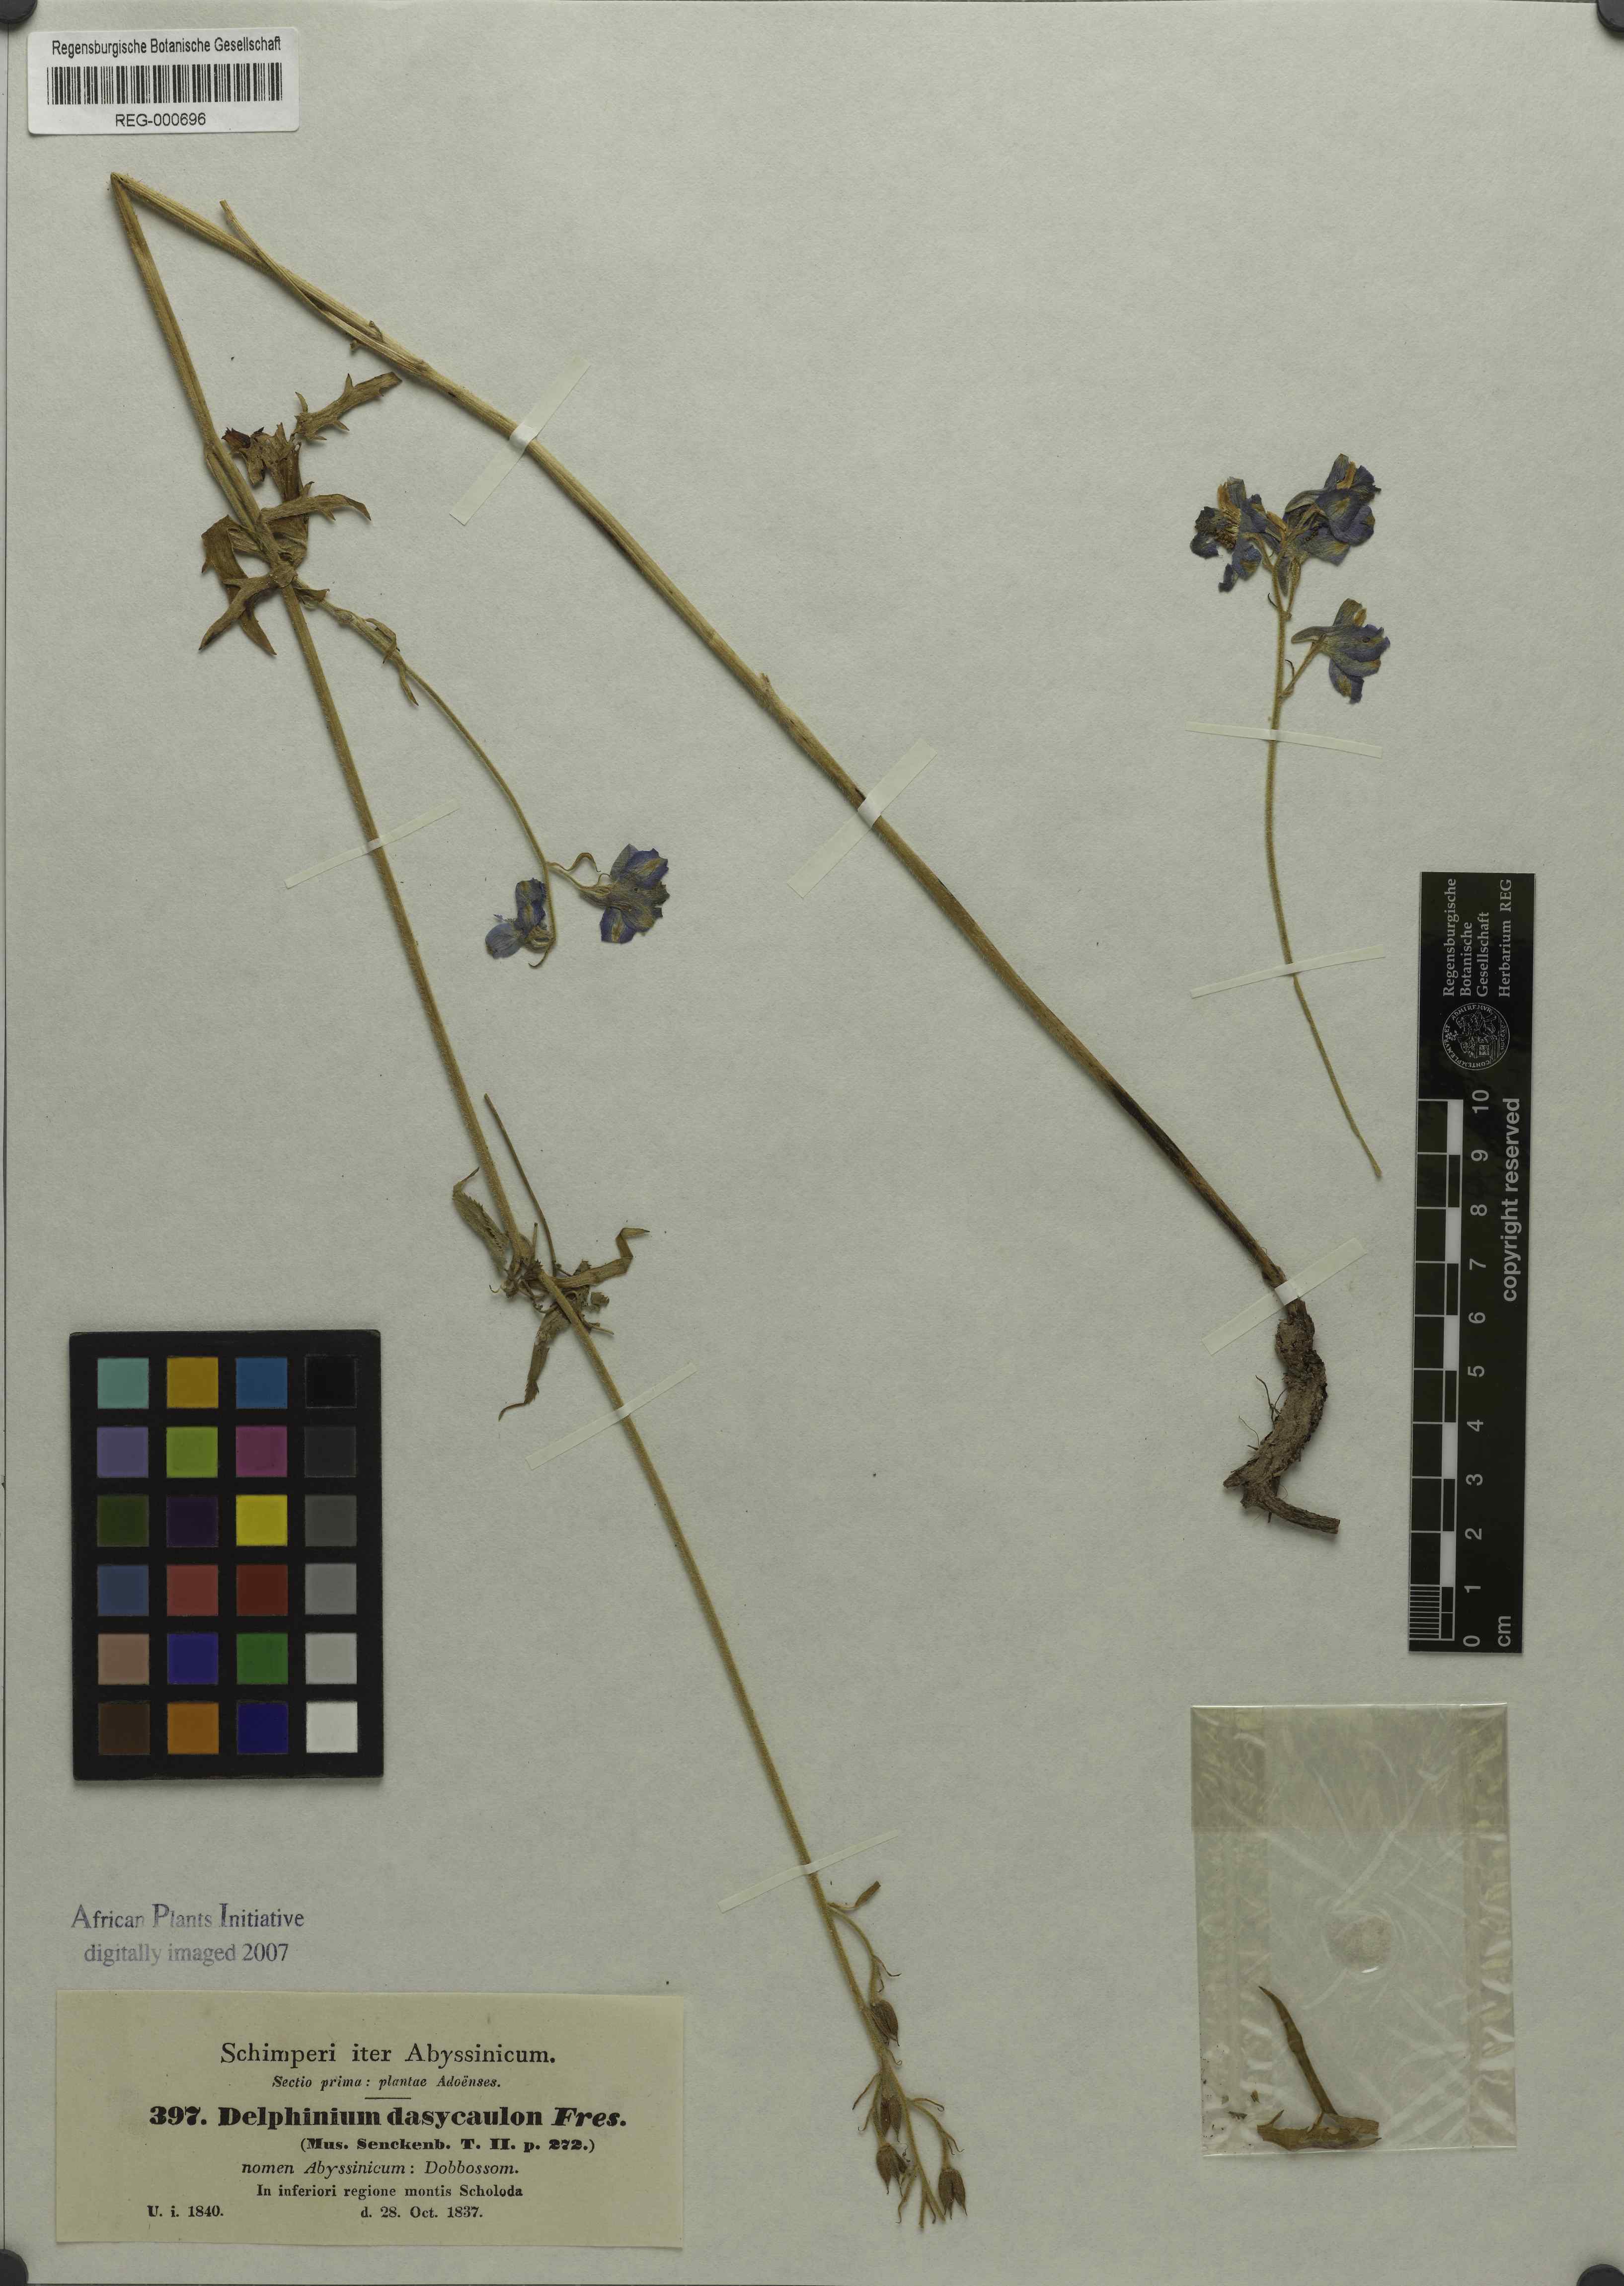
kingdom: Plantae
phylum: Tracheophyta
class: Magnoliopsida
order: Ranunculales
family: Ranunculaceae
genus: Delphinium
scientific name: Delphinium dasycaulon
